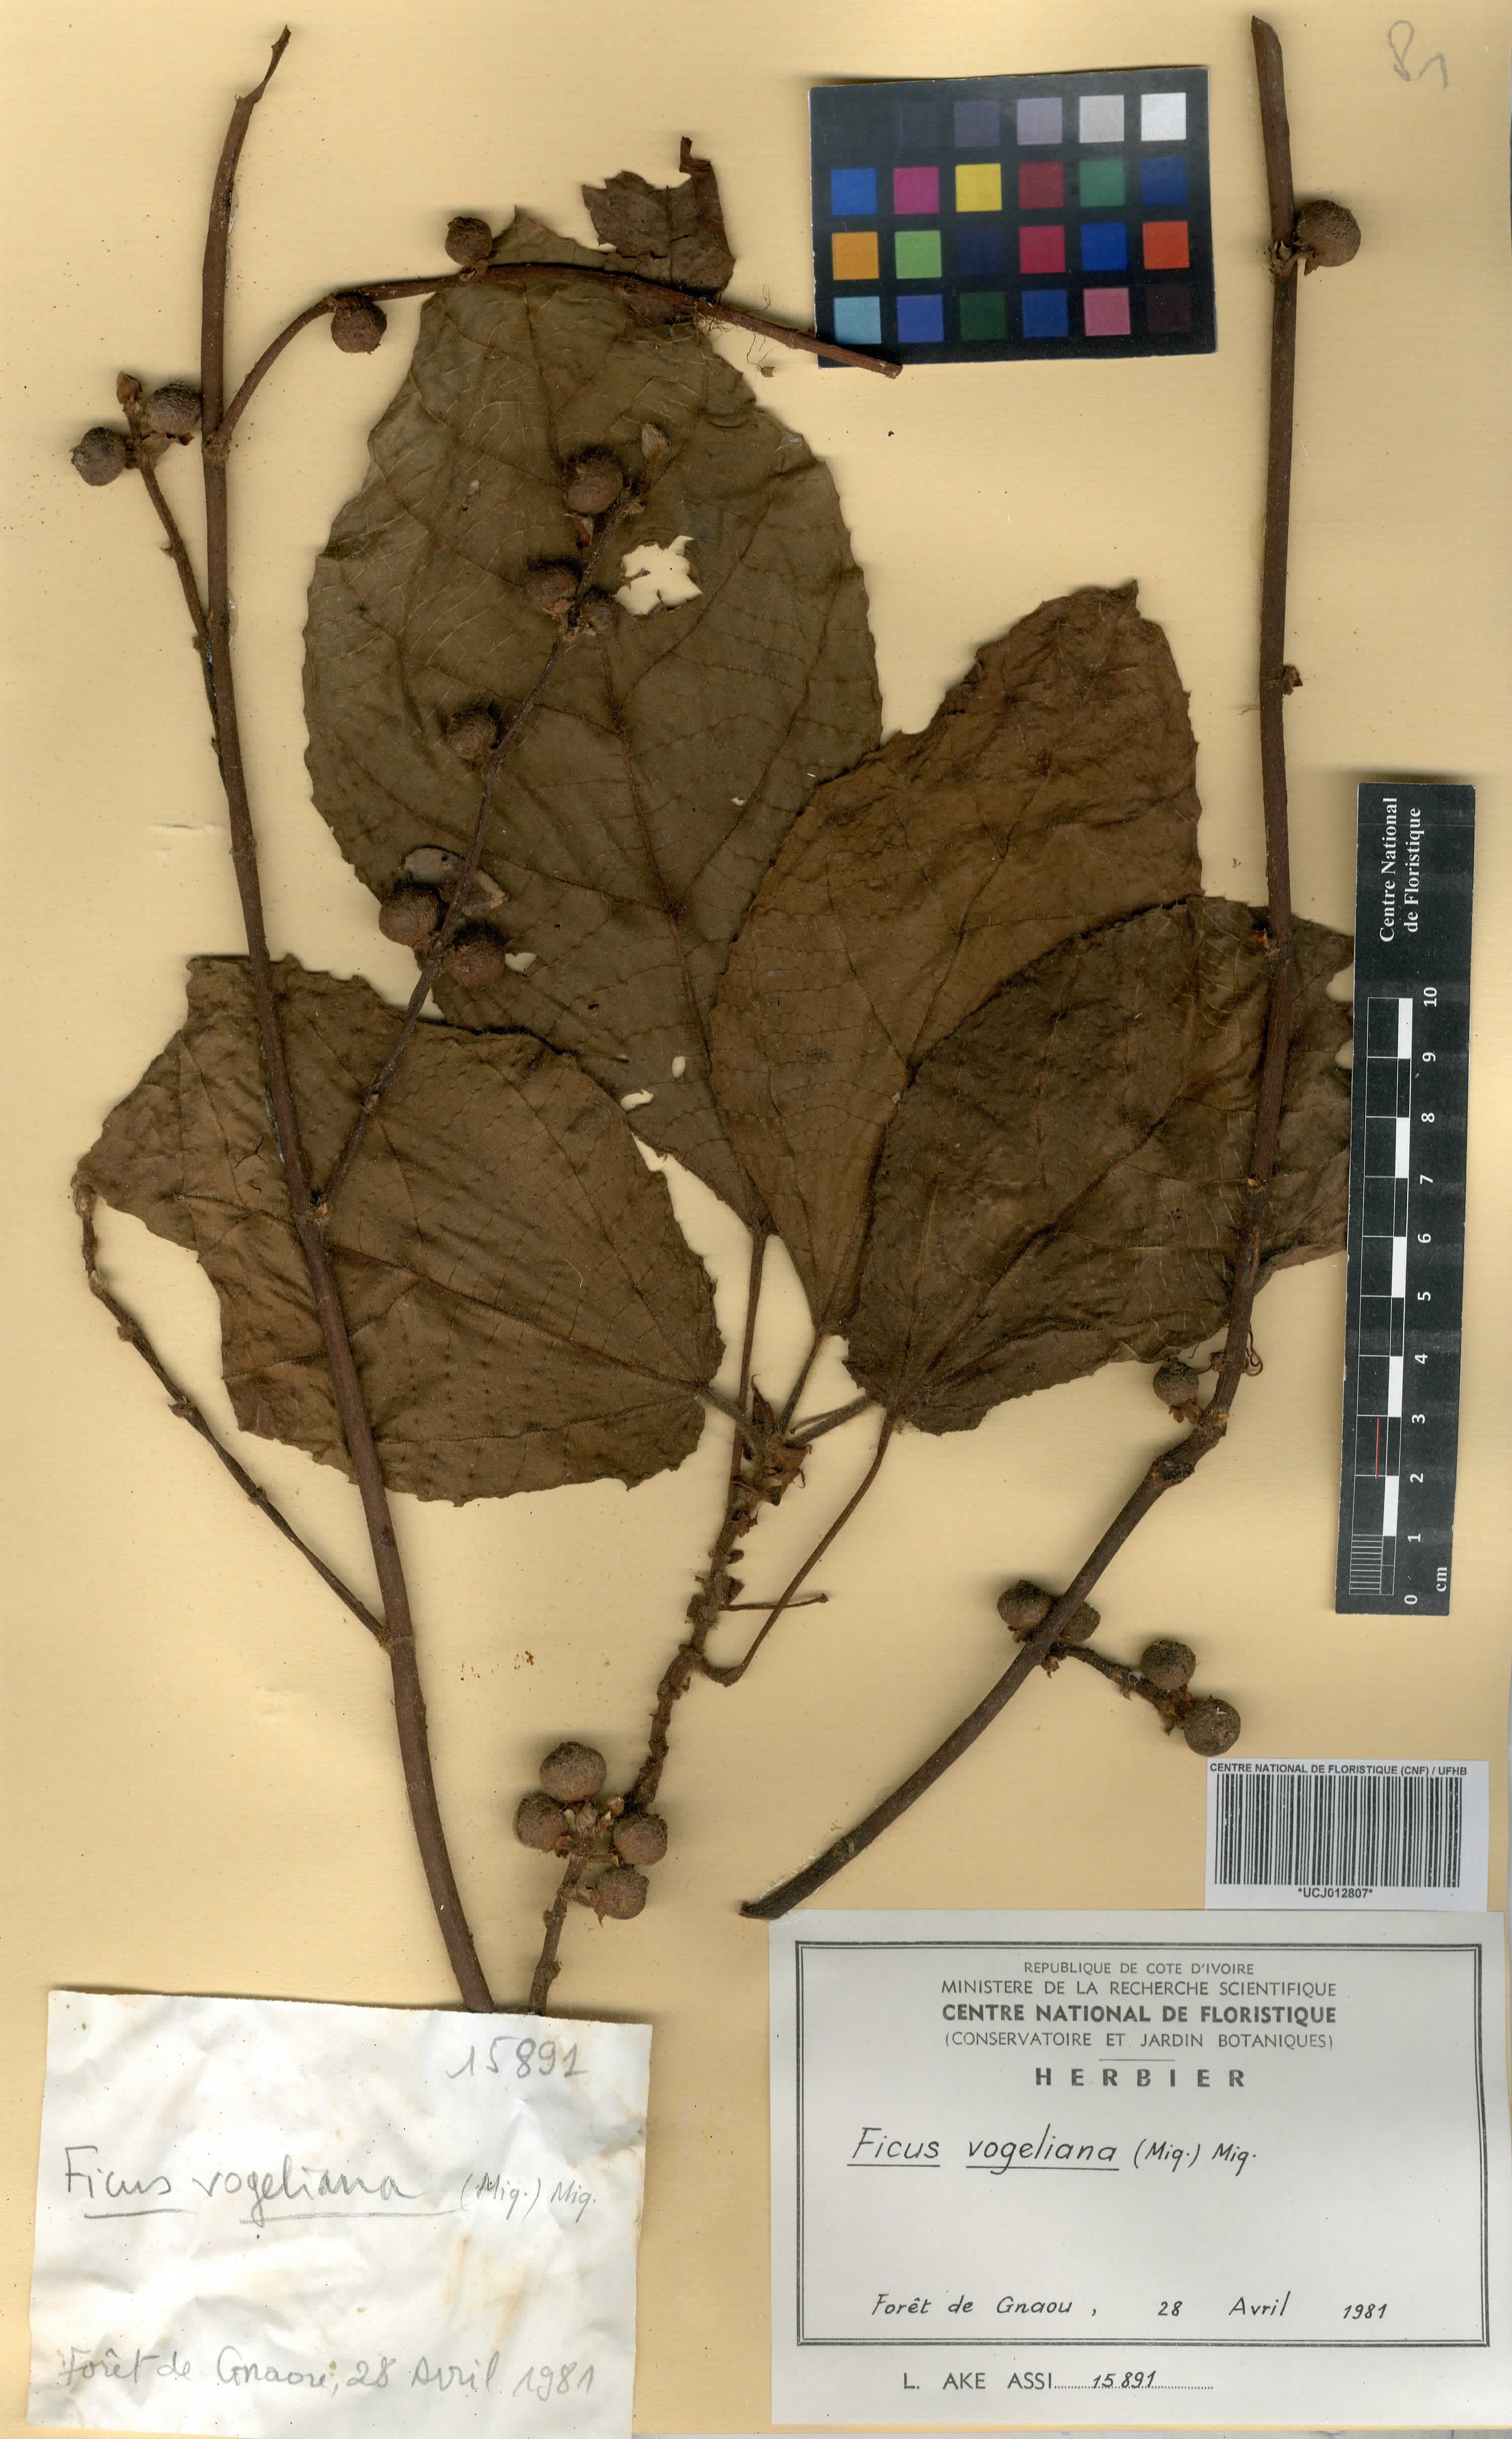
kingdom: Plantae
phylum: Tracheophyta
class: Magnoliopsida
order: Rosales
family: Moraceae
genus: Ficus
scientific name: Ficus vogeliana
